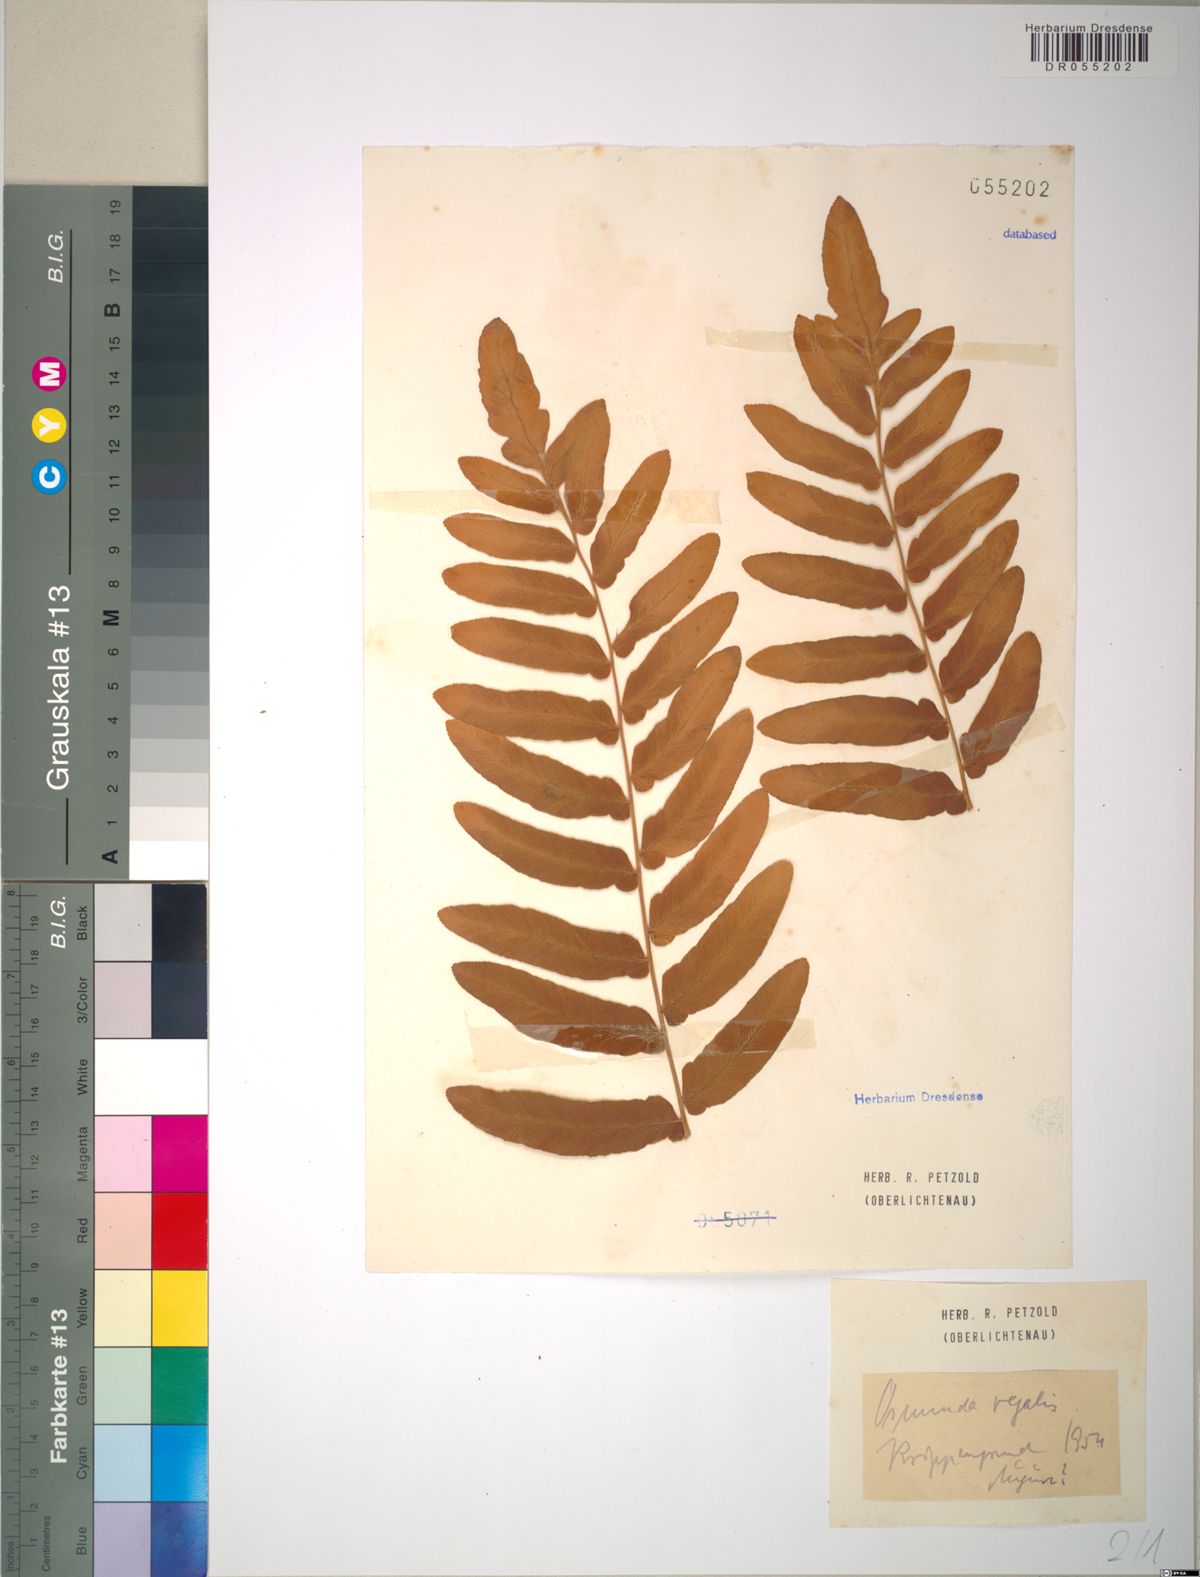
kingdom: Plantae
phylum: Tracheophyta
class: Polypodiopsida
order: Osmundales
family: Osmundaceae
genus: Osmunda
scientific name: Osmunda regalis
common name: Royal fern
